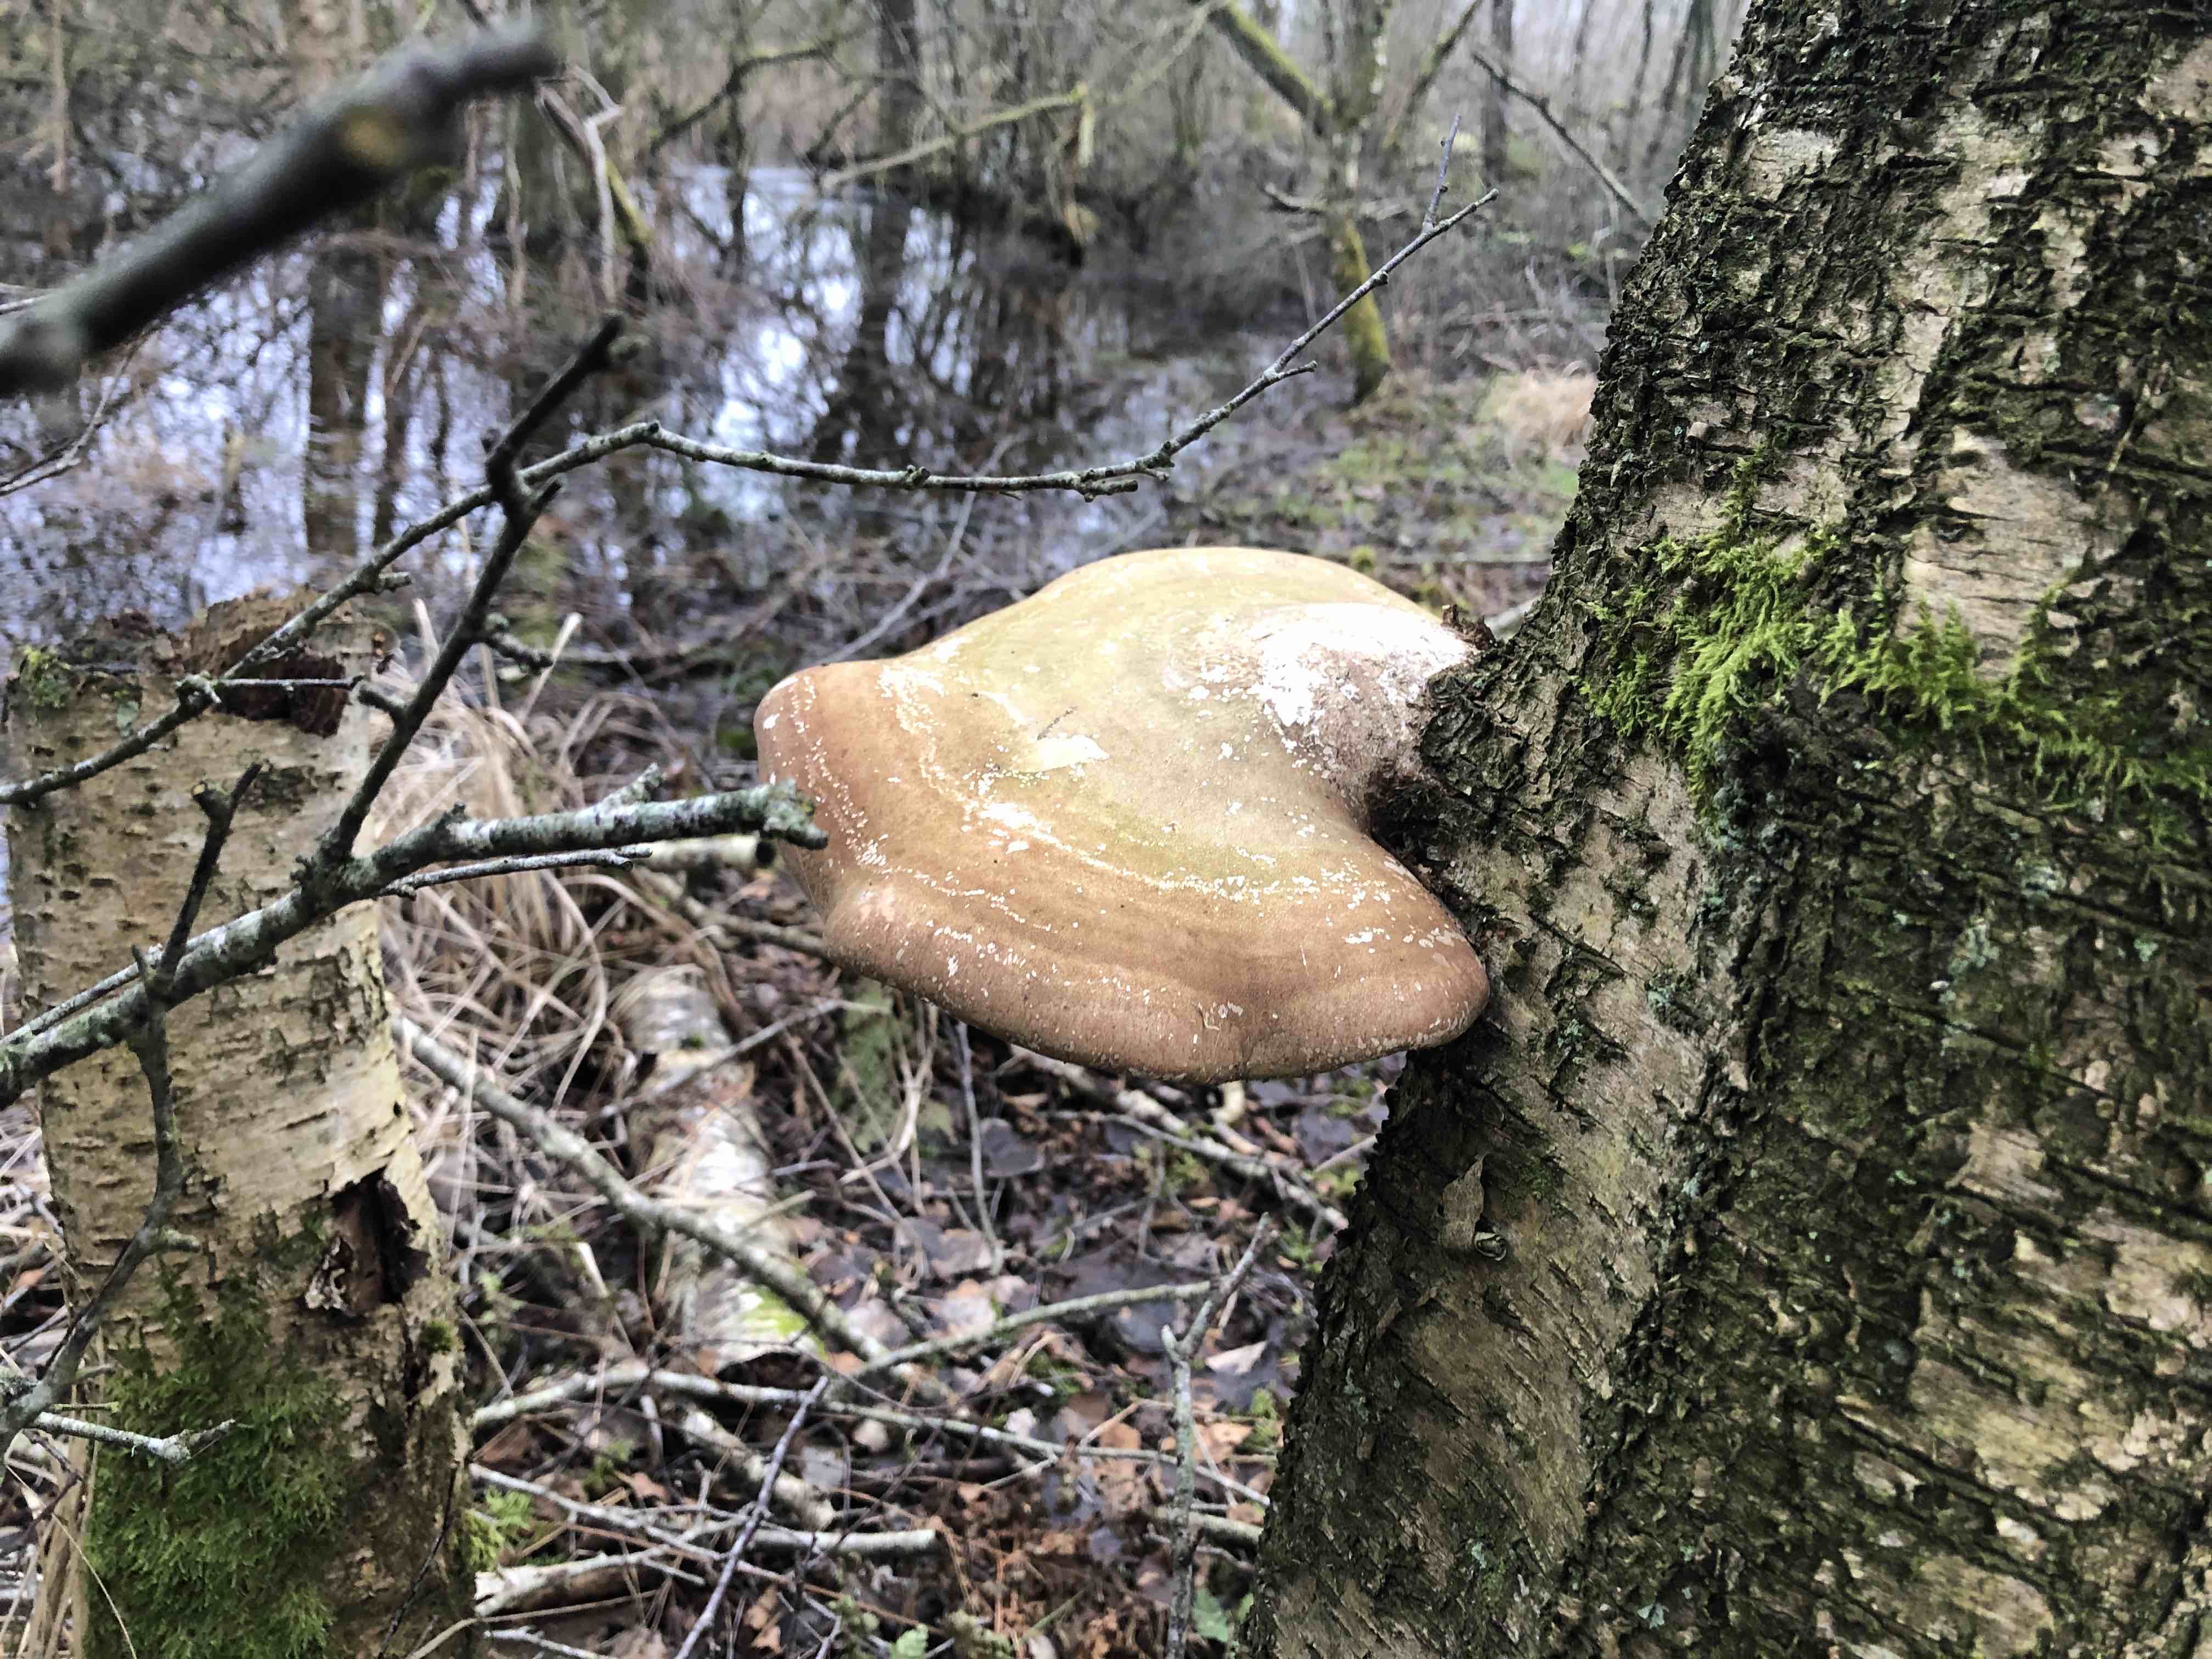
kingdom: Fungi
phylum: Basidiomycota
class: Agaricomycetes
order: Polyporales
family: Fomitopsidaceae
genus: Fomitopsis
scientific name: Fomitopsis betulina
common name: birkeporesvamp
